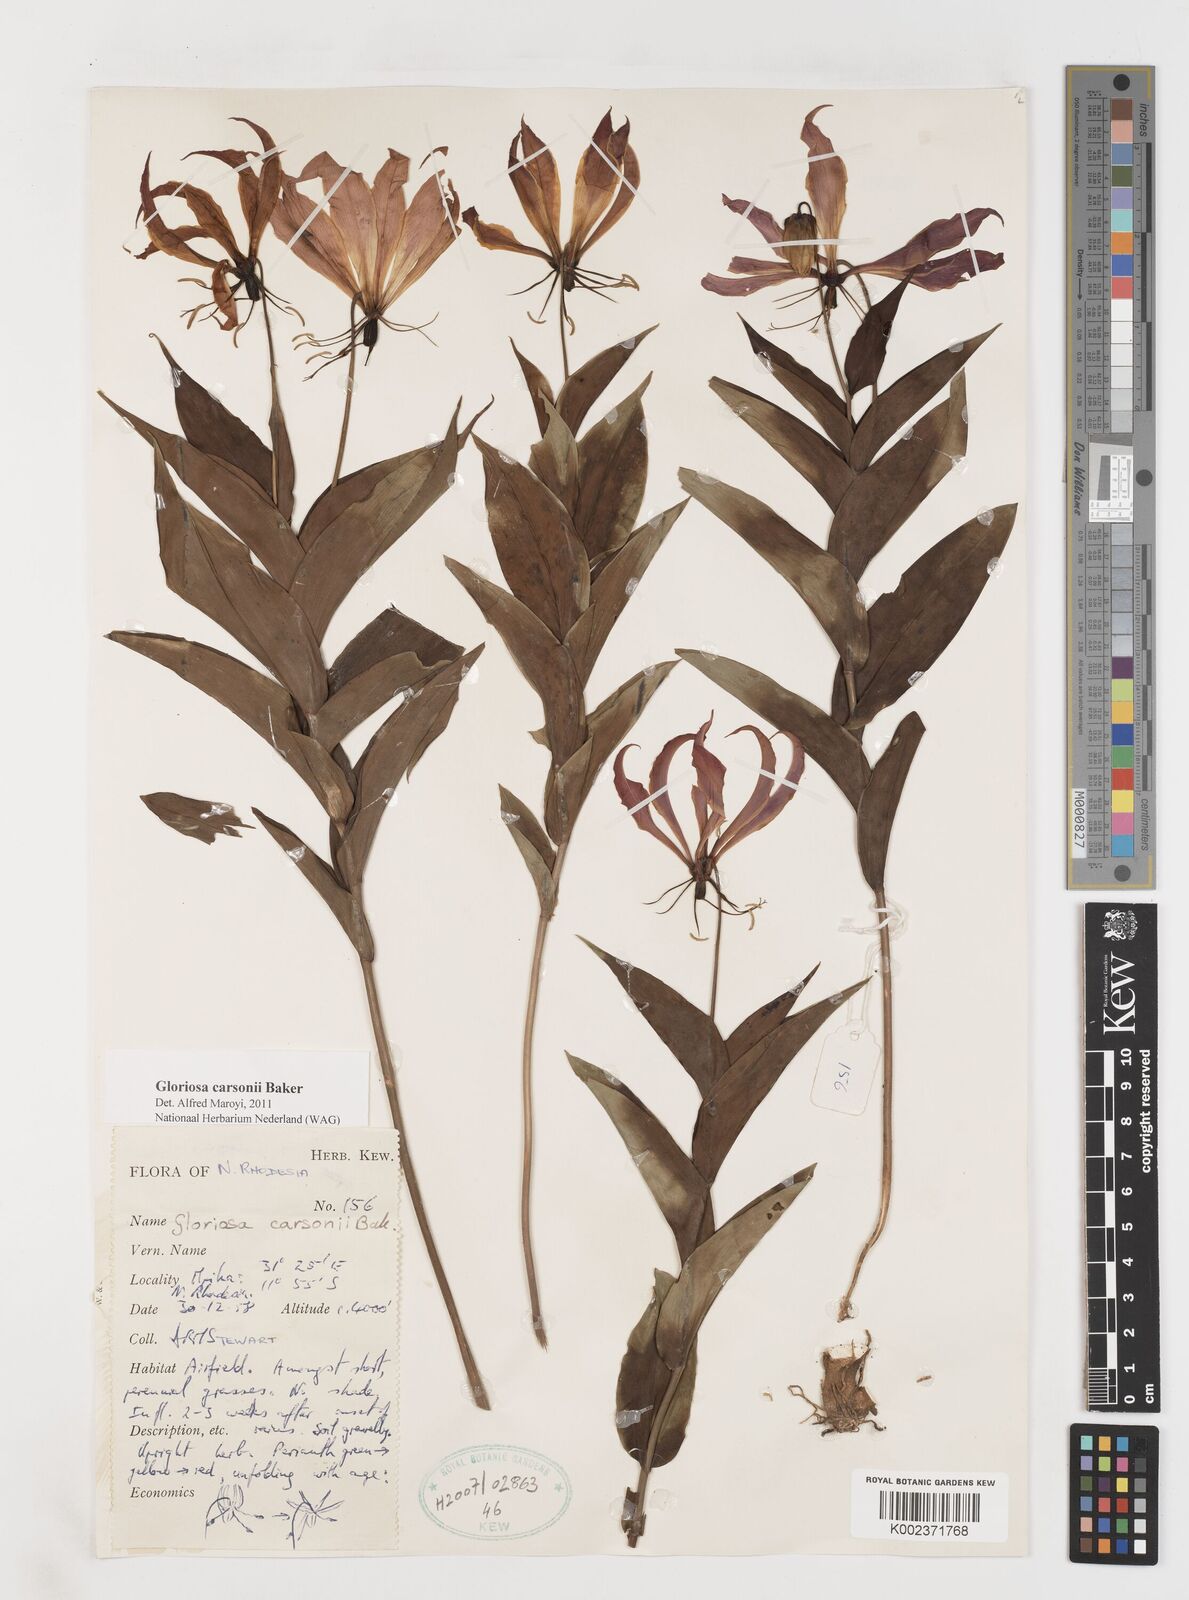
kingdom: Plantae
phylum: Tracheophyta
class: Liliopsida
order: Liliales
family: Colchicaceae
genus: Gloriosa
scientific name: Gloriosa carsonii
